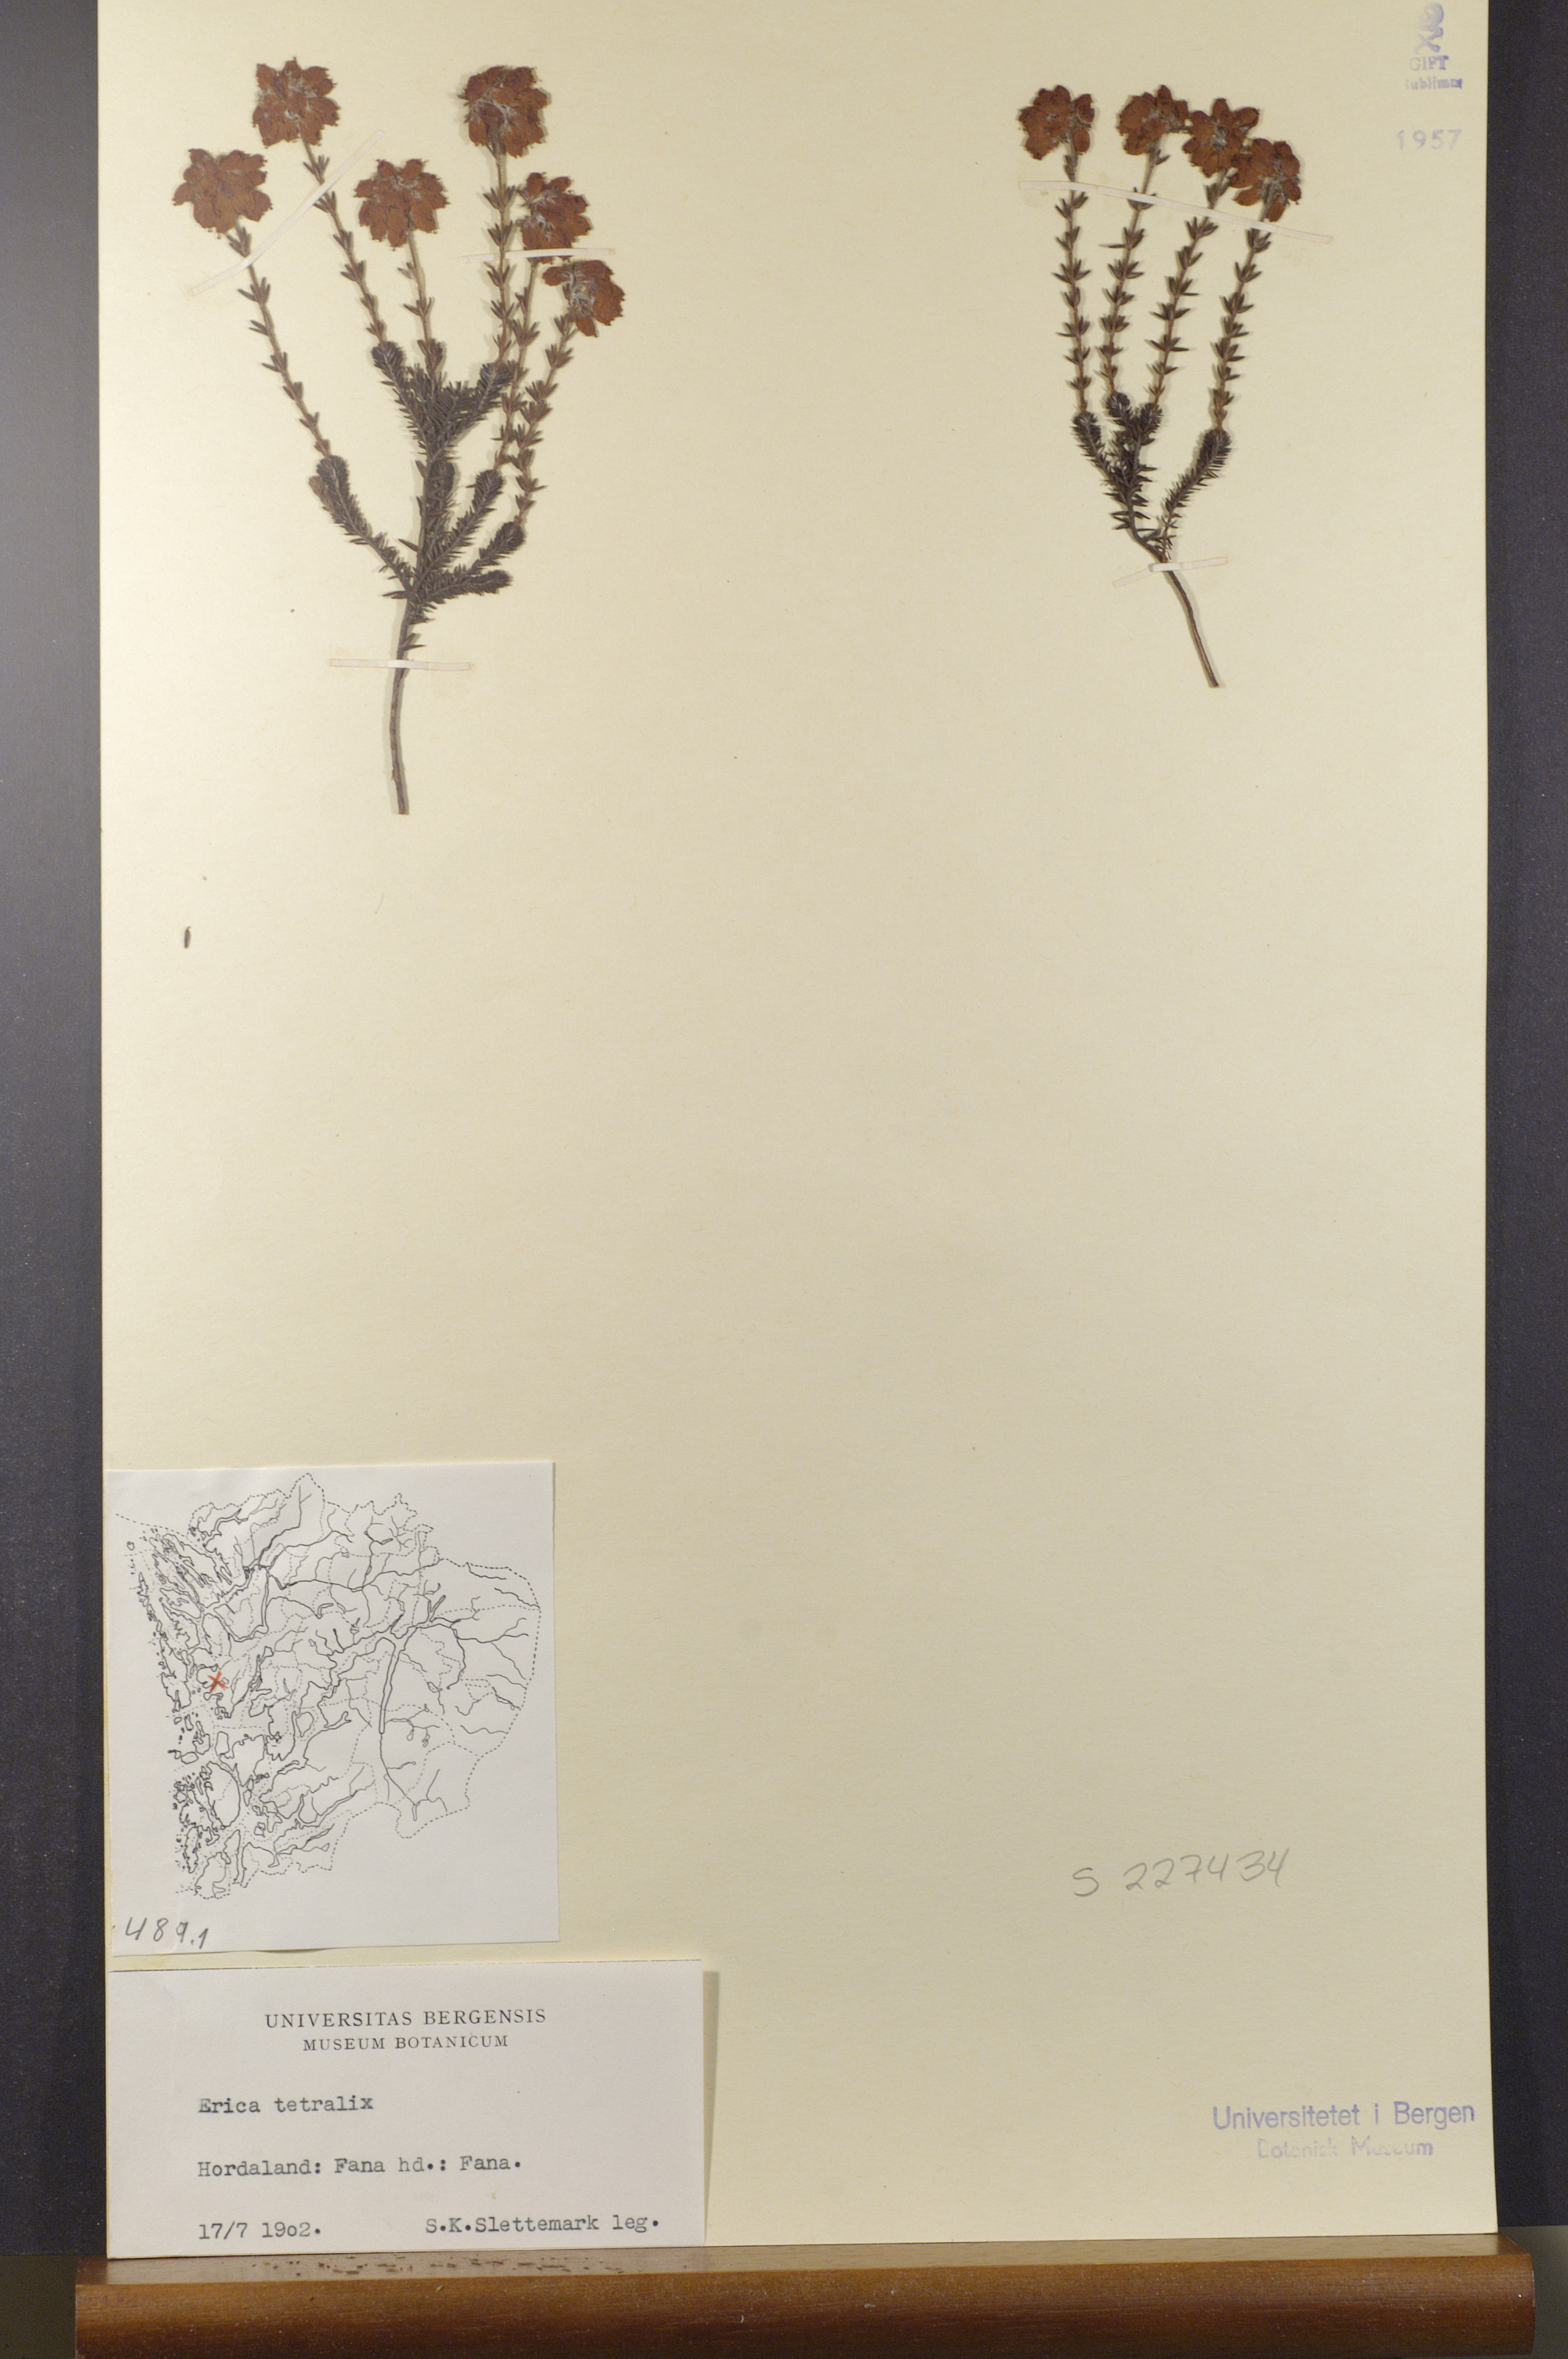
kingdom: Plantae
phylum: Tracheophyta
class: Magnoliopsida
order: Ericales
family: Ericaceae
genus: Erica
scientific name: Erica tetralix
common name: Cross-leaved heath
